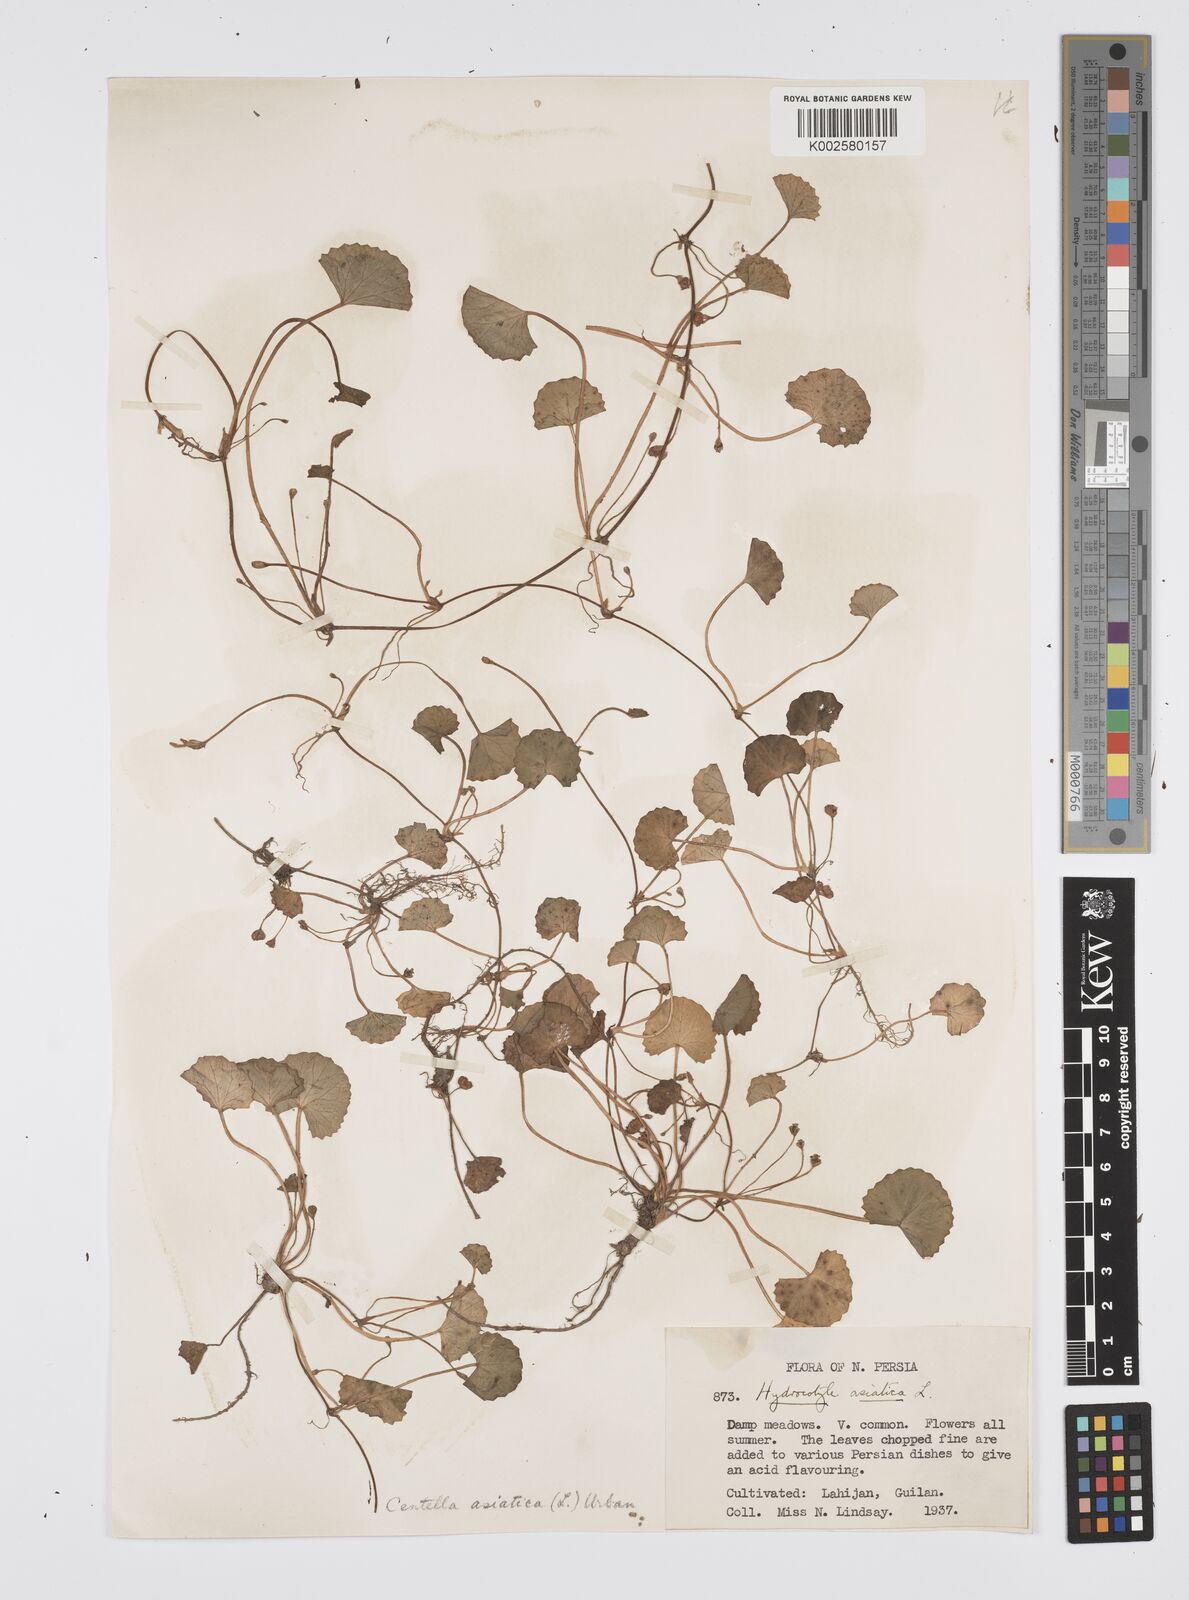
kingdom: Plantae
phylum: Tracheophyta
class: Magnoliopsida
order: Apiales
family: Apiaceae
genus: Centella
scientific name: Centella asiatica
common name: Spadeleaf
